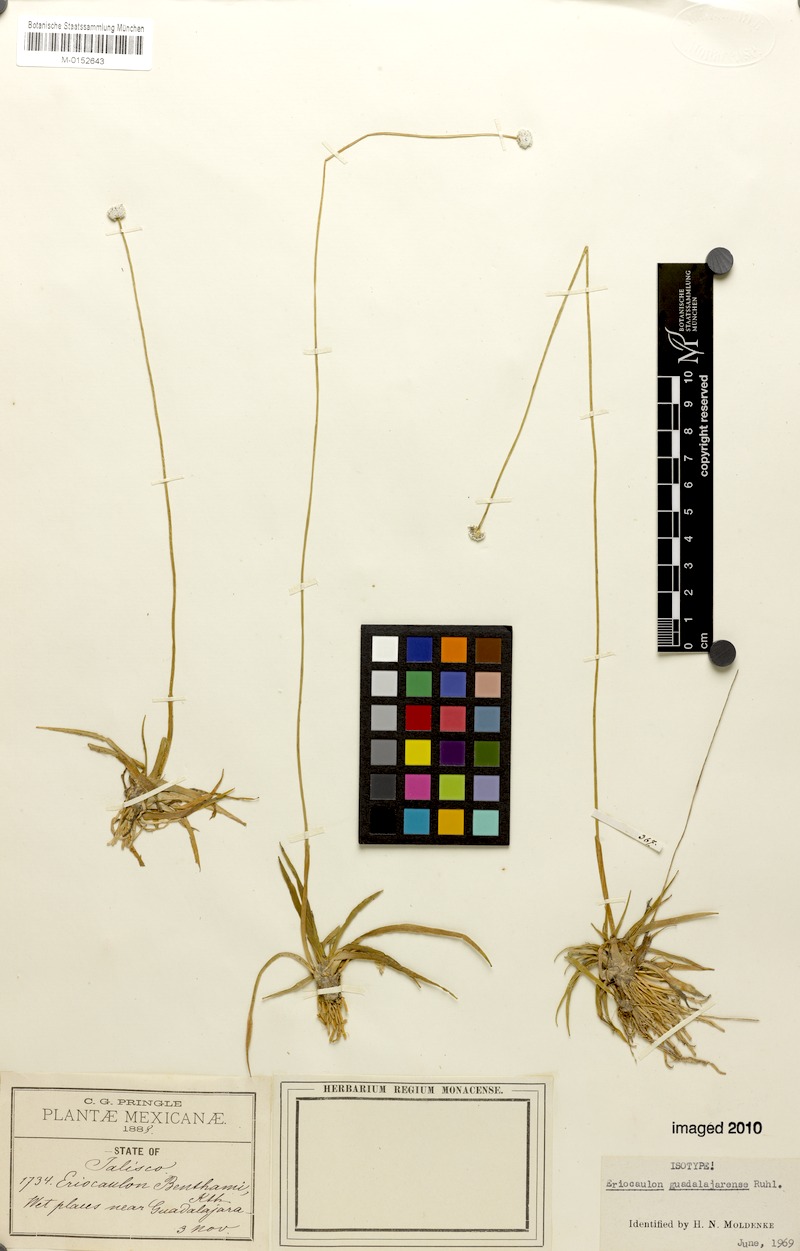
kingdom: Plantae
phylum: Tracheophyta
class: Liliopsida
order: Poales
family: Eriocaulaceae
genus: Eriocaulon
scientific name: Eriocaulon benthamii
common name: Bentham's pipewort
